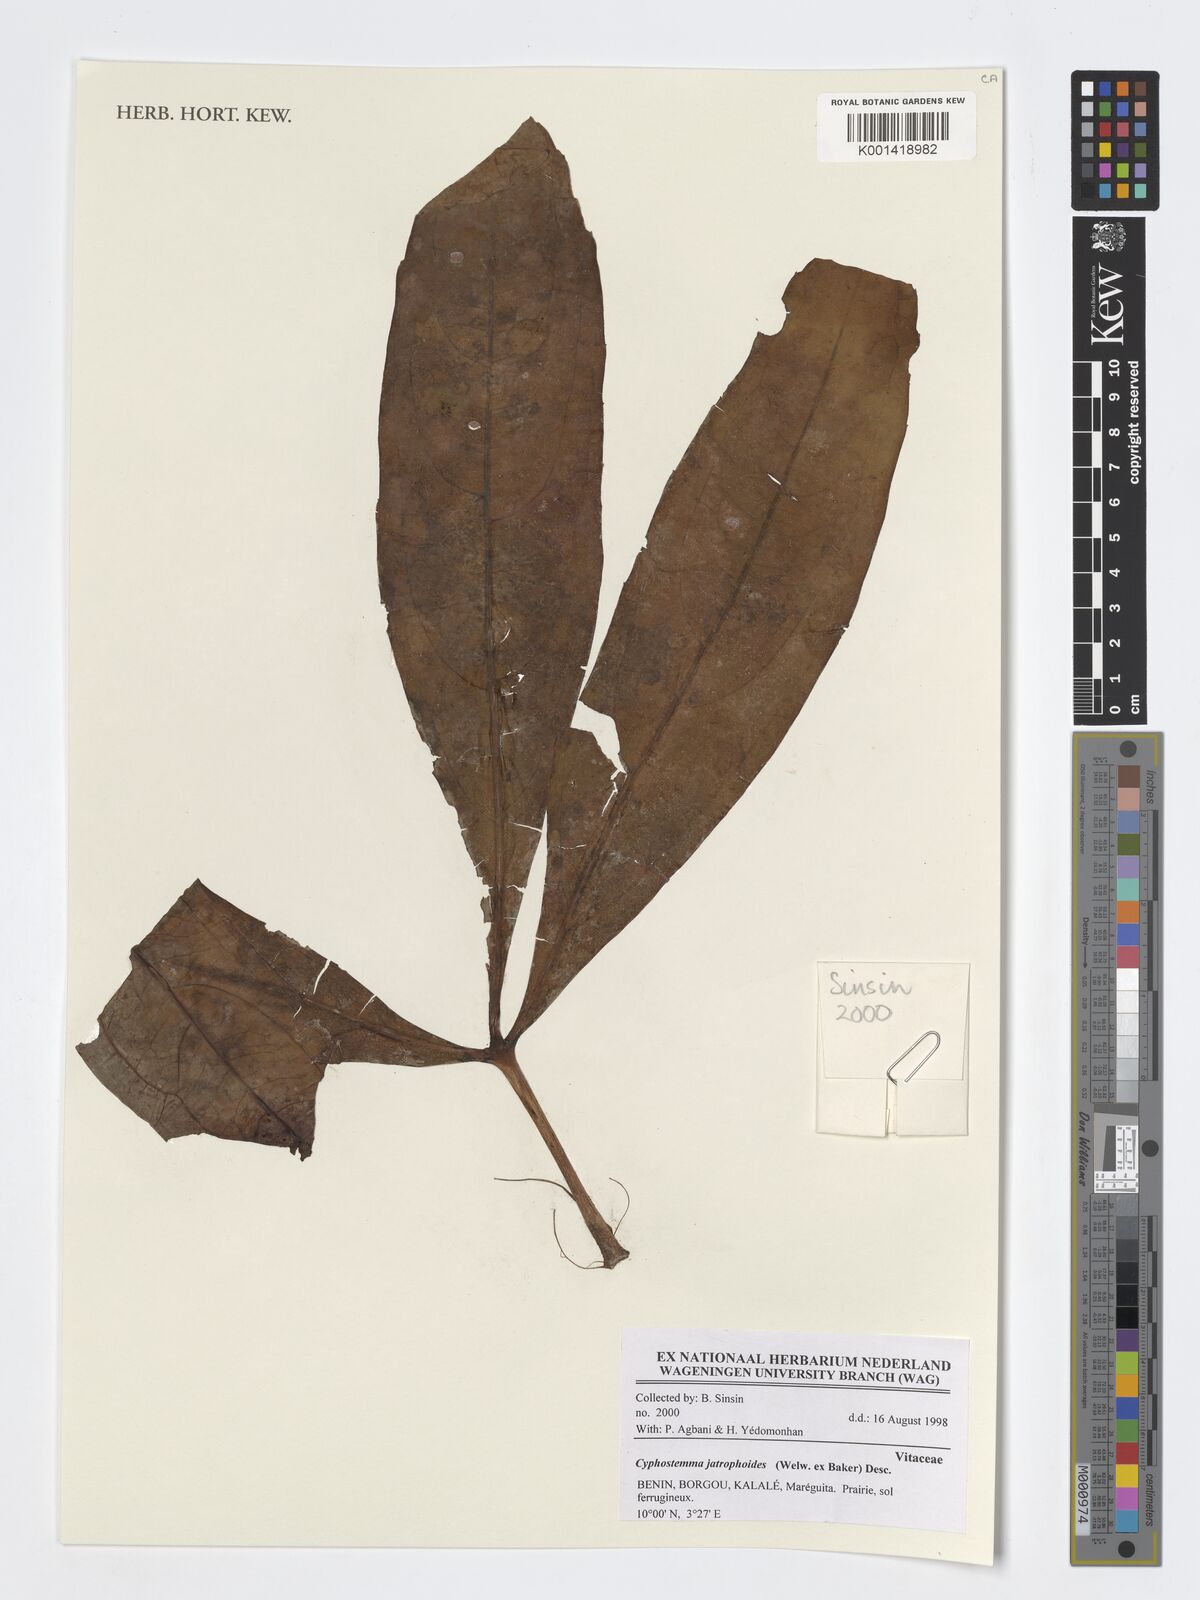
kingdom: Plantae
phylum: Tracheophyta
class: Magnoliopsida
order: Vitales
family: Vitaceae
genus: Cyphostemma
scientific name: Cyphostemma junceum
